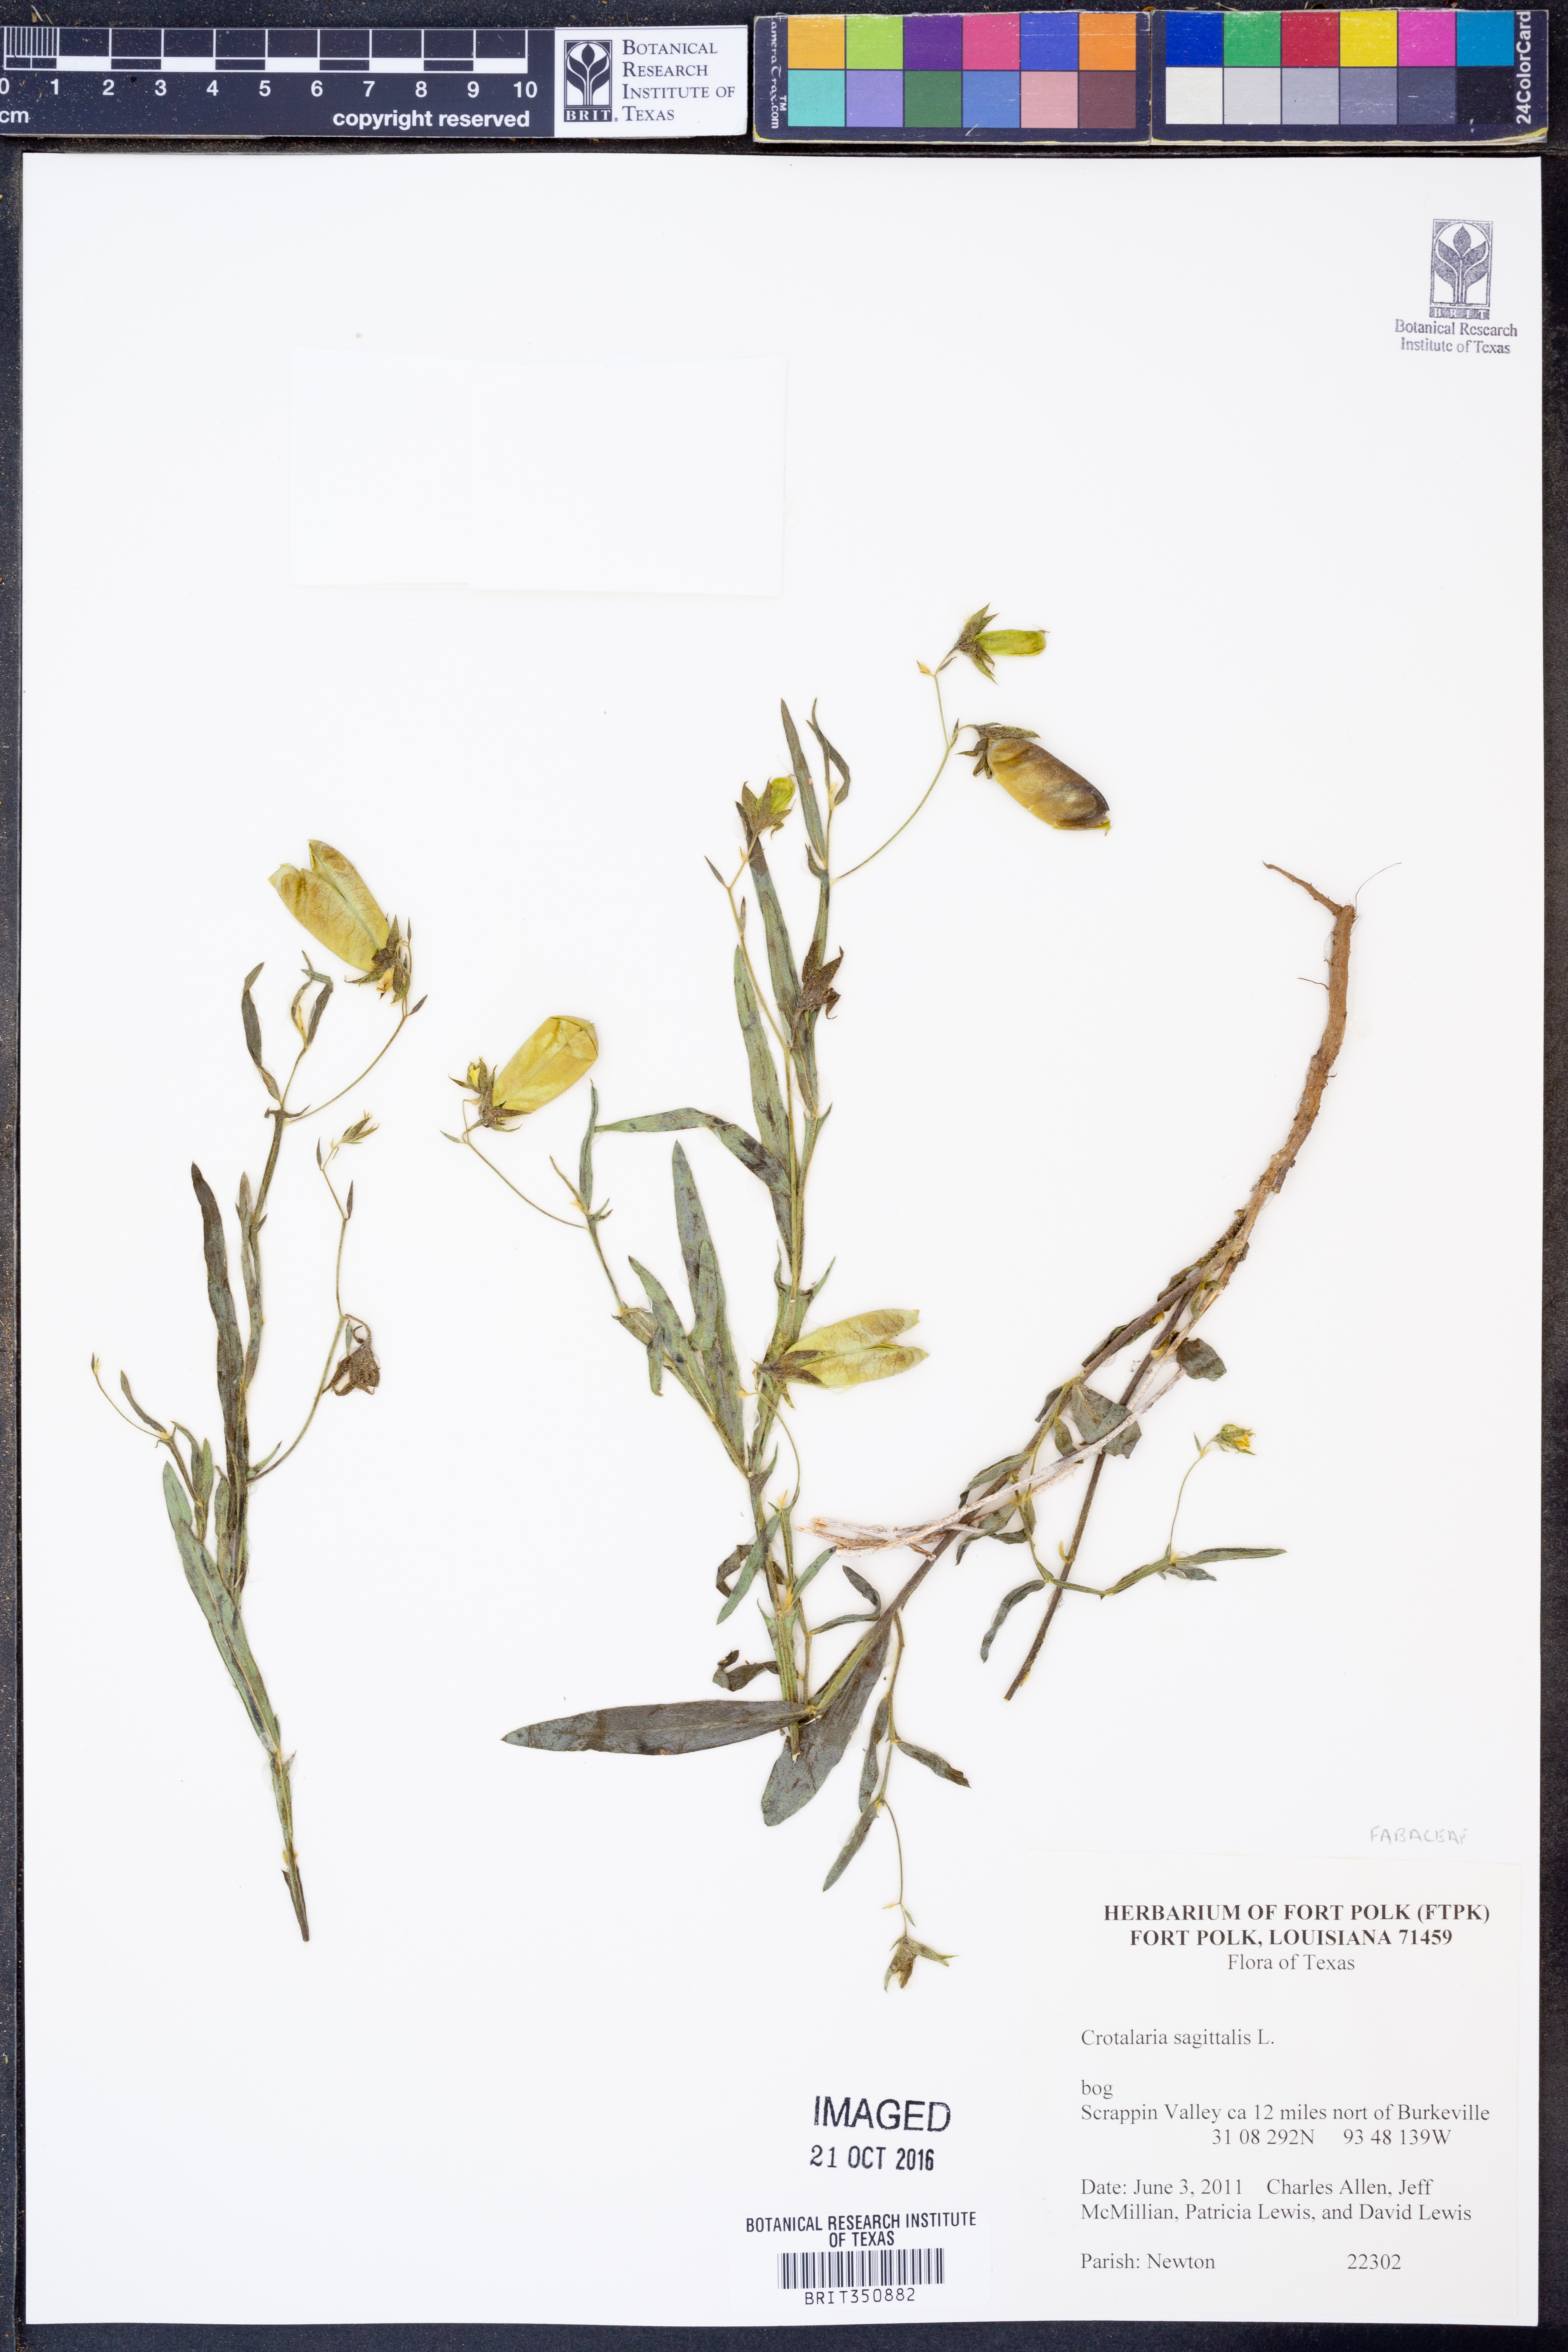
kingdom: Plantae
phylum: Tracheophyta
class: Magnoliopsida
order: Fabales
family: Fabaceae
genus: Crotalaria
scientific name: Crotalaria sagittalis
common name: Arrowhead rattlebox
